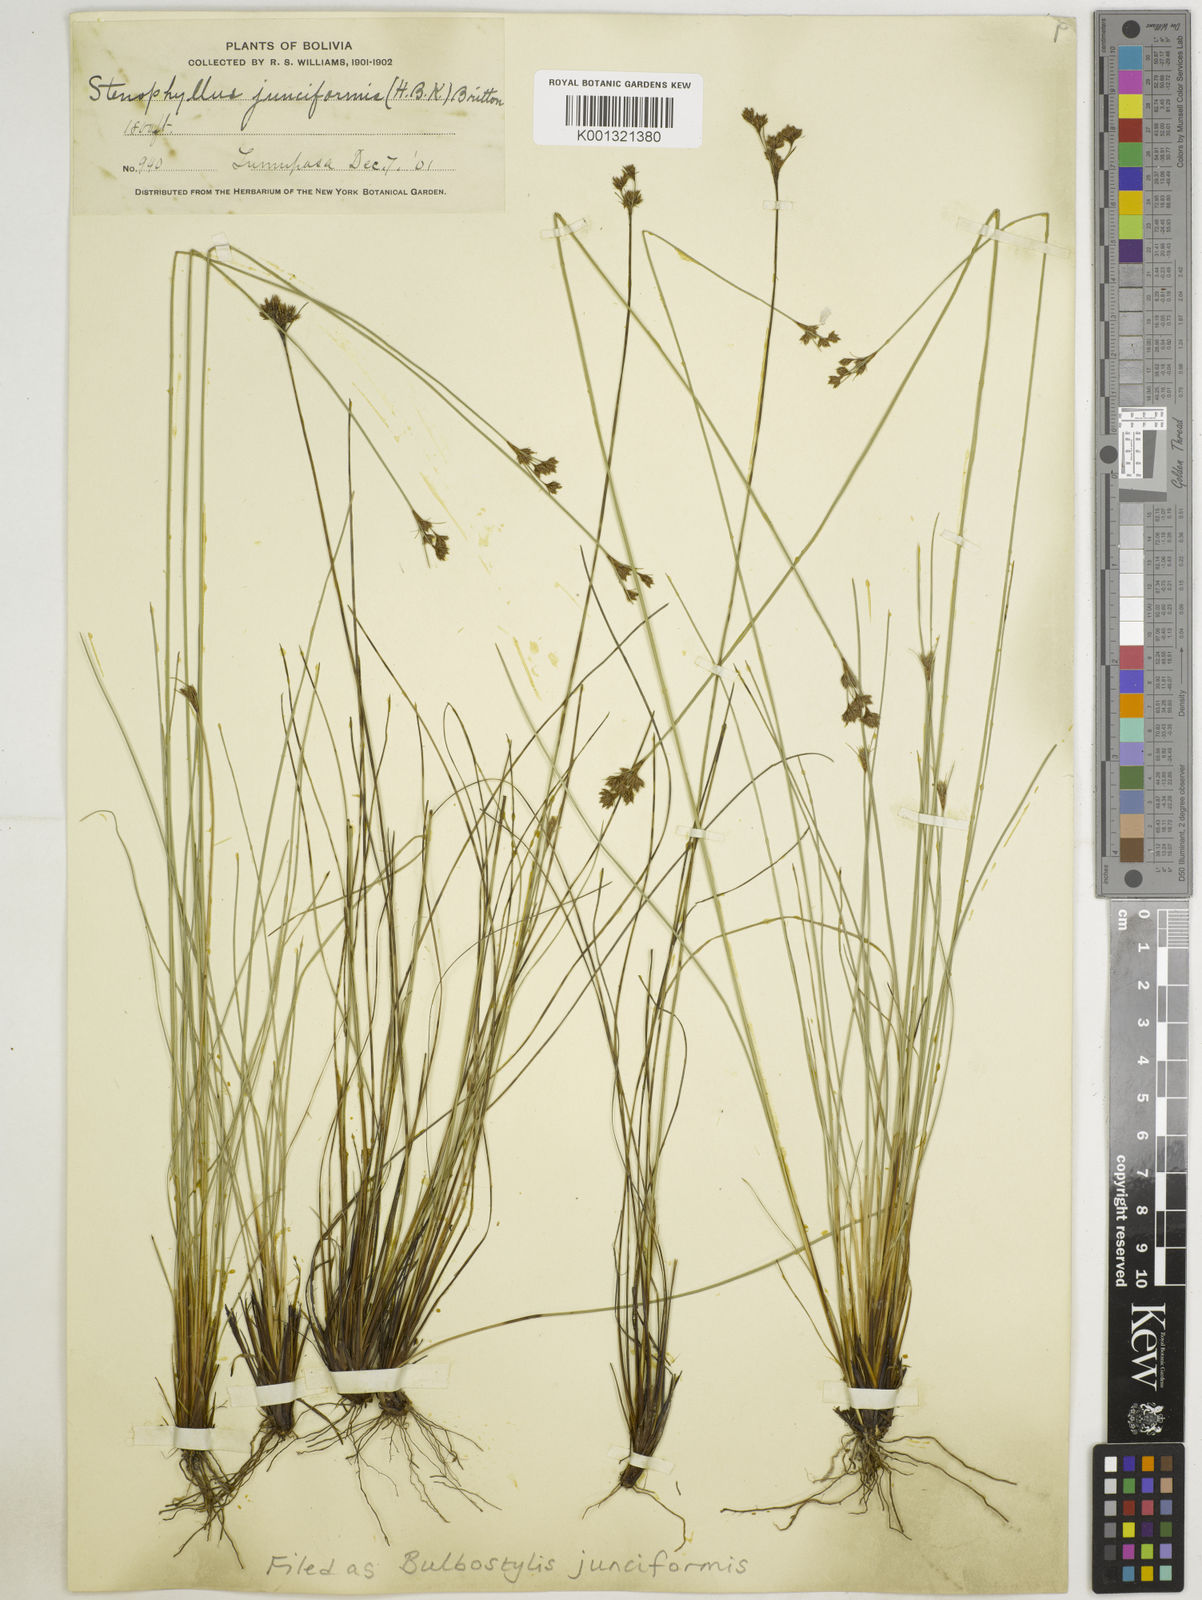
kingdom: Plantae
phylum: Tracheophyta
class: Liliopsida
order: Poales
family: Cyperaceae
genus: Bulbostylis
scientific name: Bulbostylis junciformis
